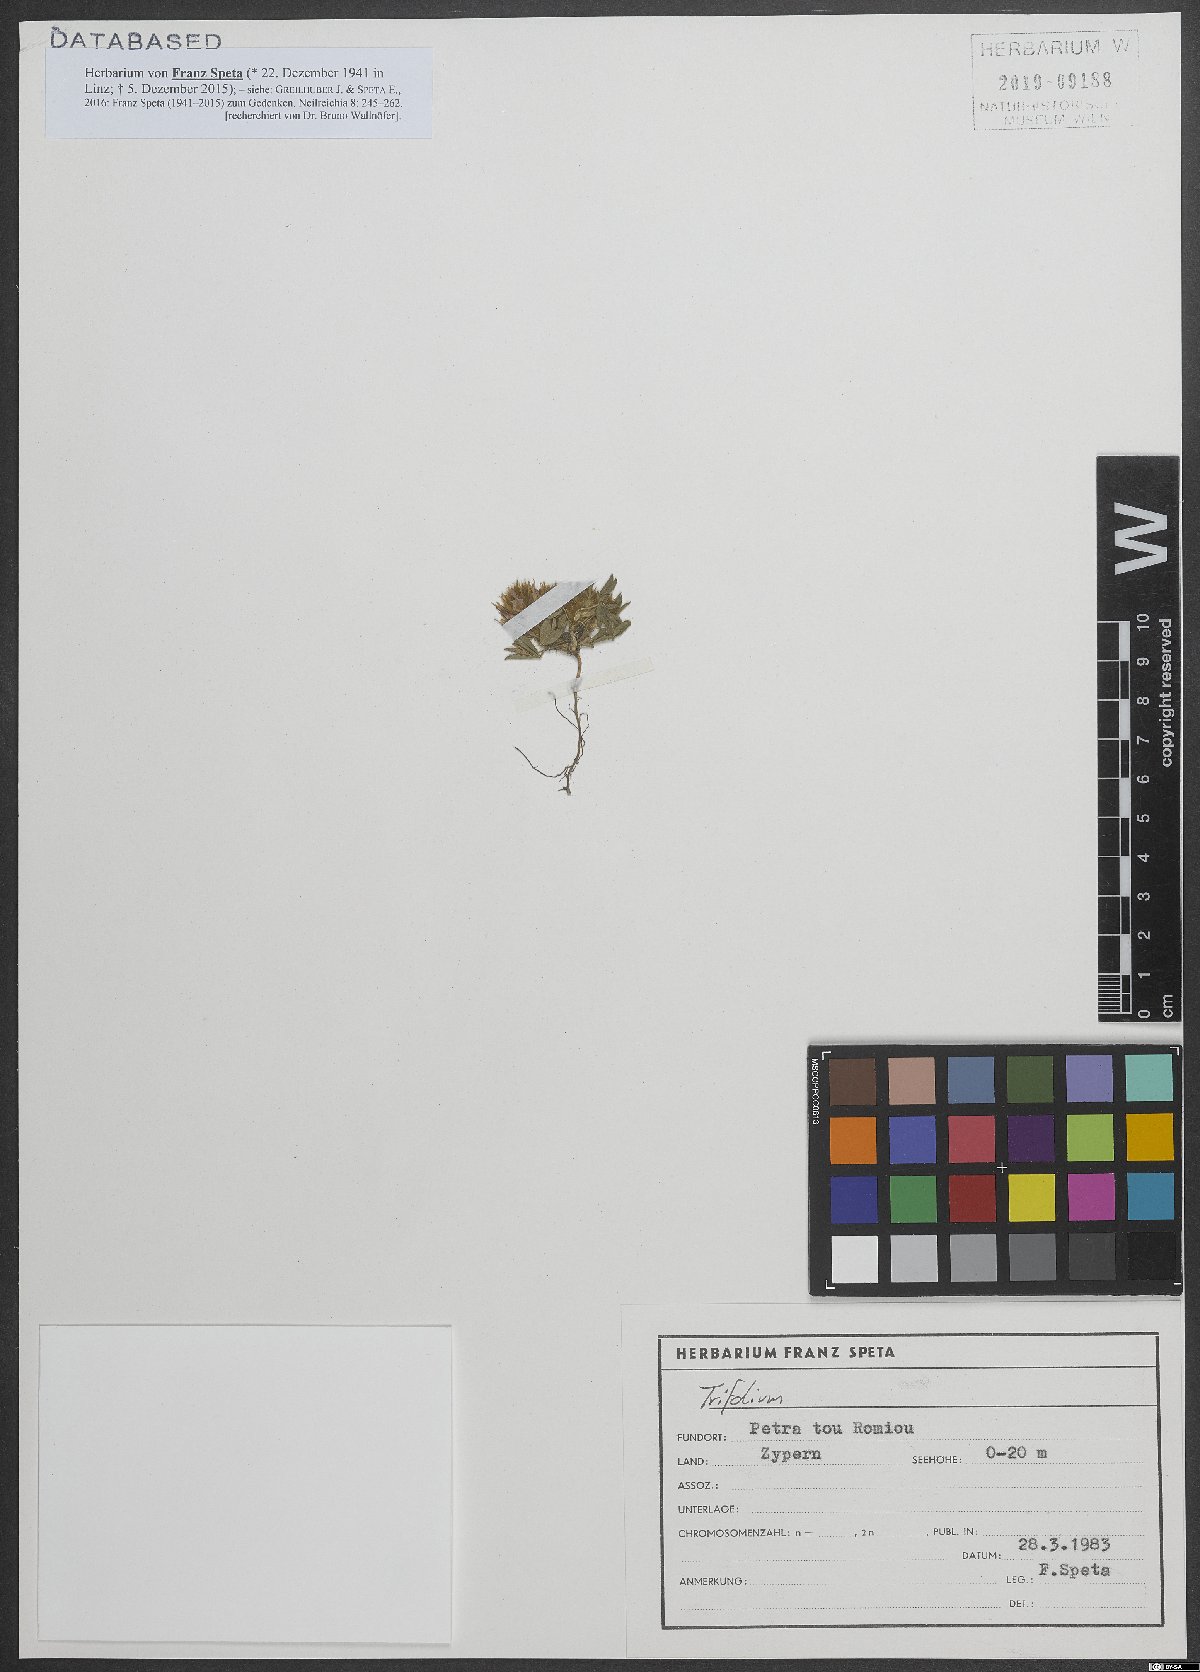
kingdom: Plantae
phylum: Tracheophyta
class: Magnoliopsida
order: Fabales
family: Fabaceae
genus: Trifolium
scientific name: Trifolium infamia-ponertii
